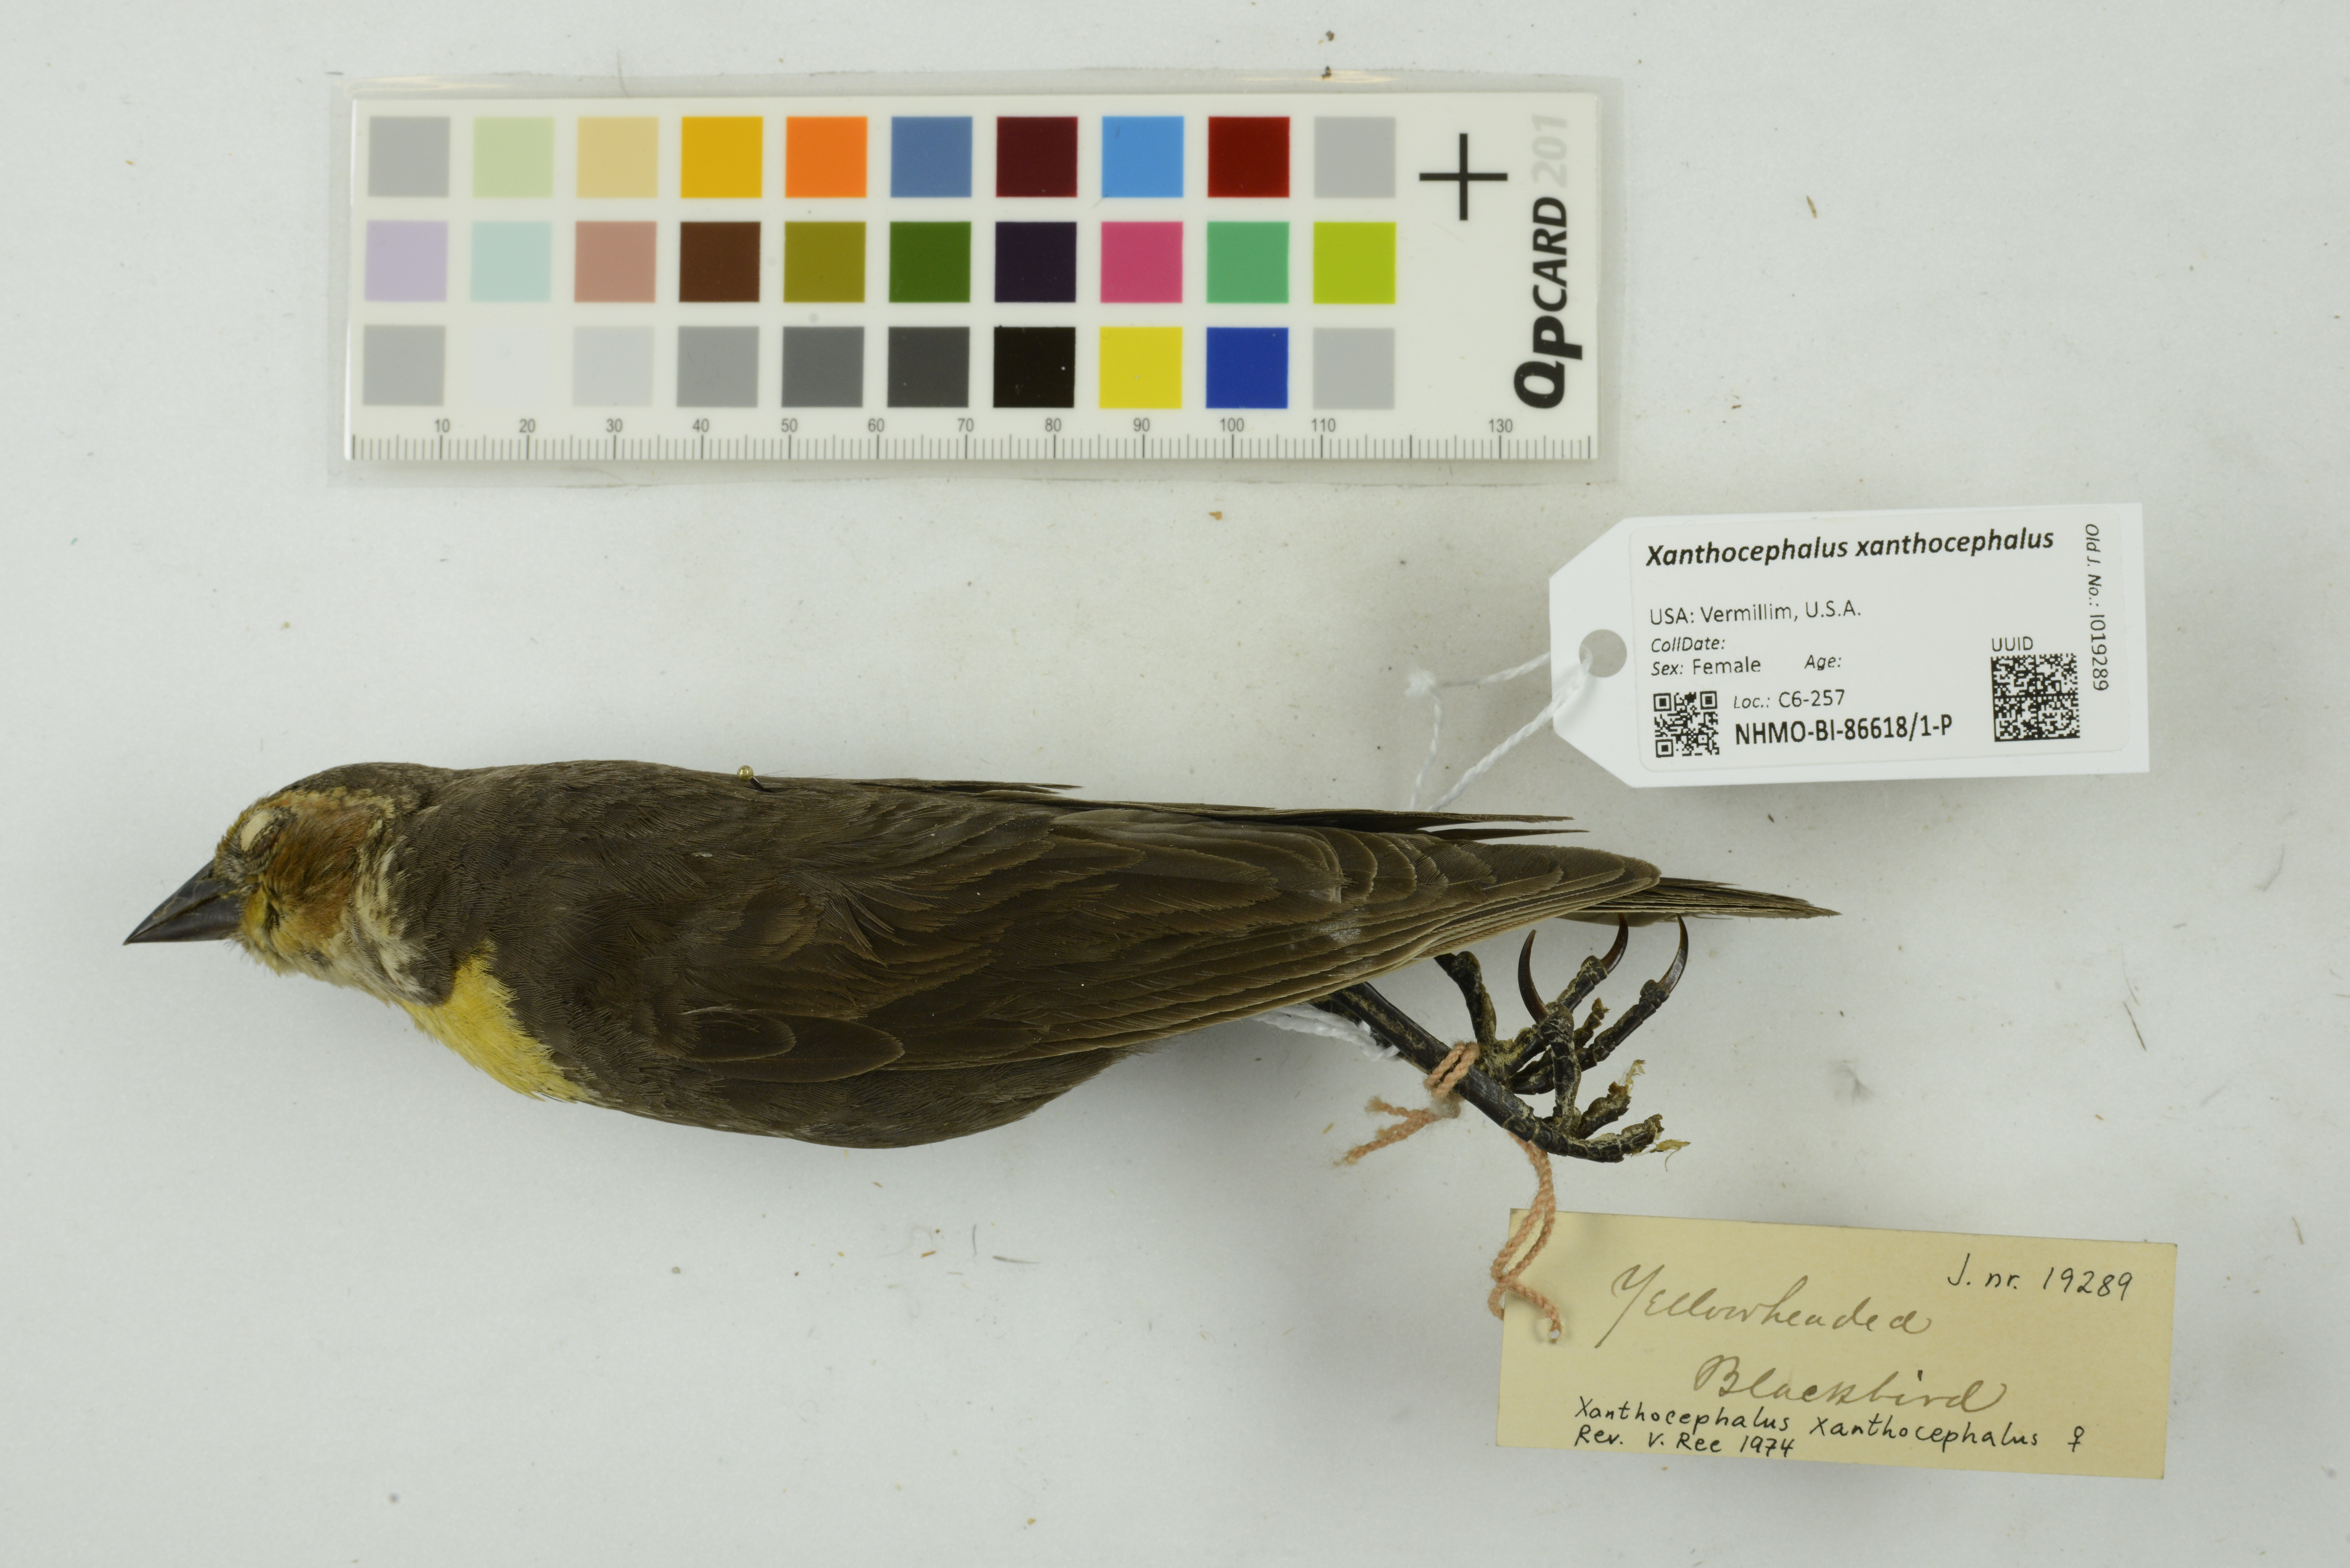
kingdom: Animalia
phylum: Chordata
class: Aves
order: Passeriformes
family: Icteridae
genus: Xanthocephalus
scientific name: Xanthocephalus xanthocephalus
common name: Yellow-headed blackbird
